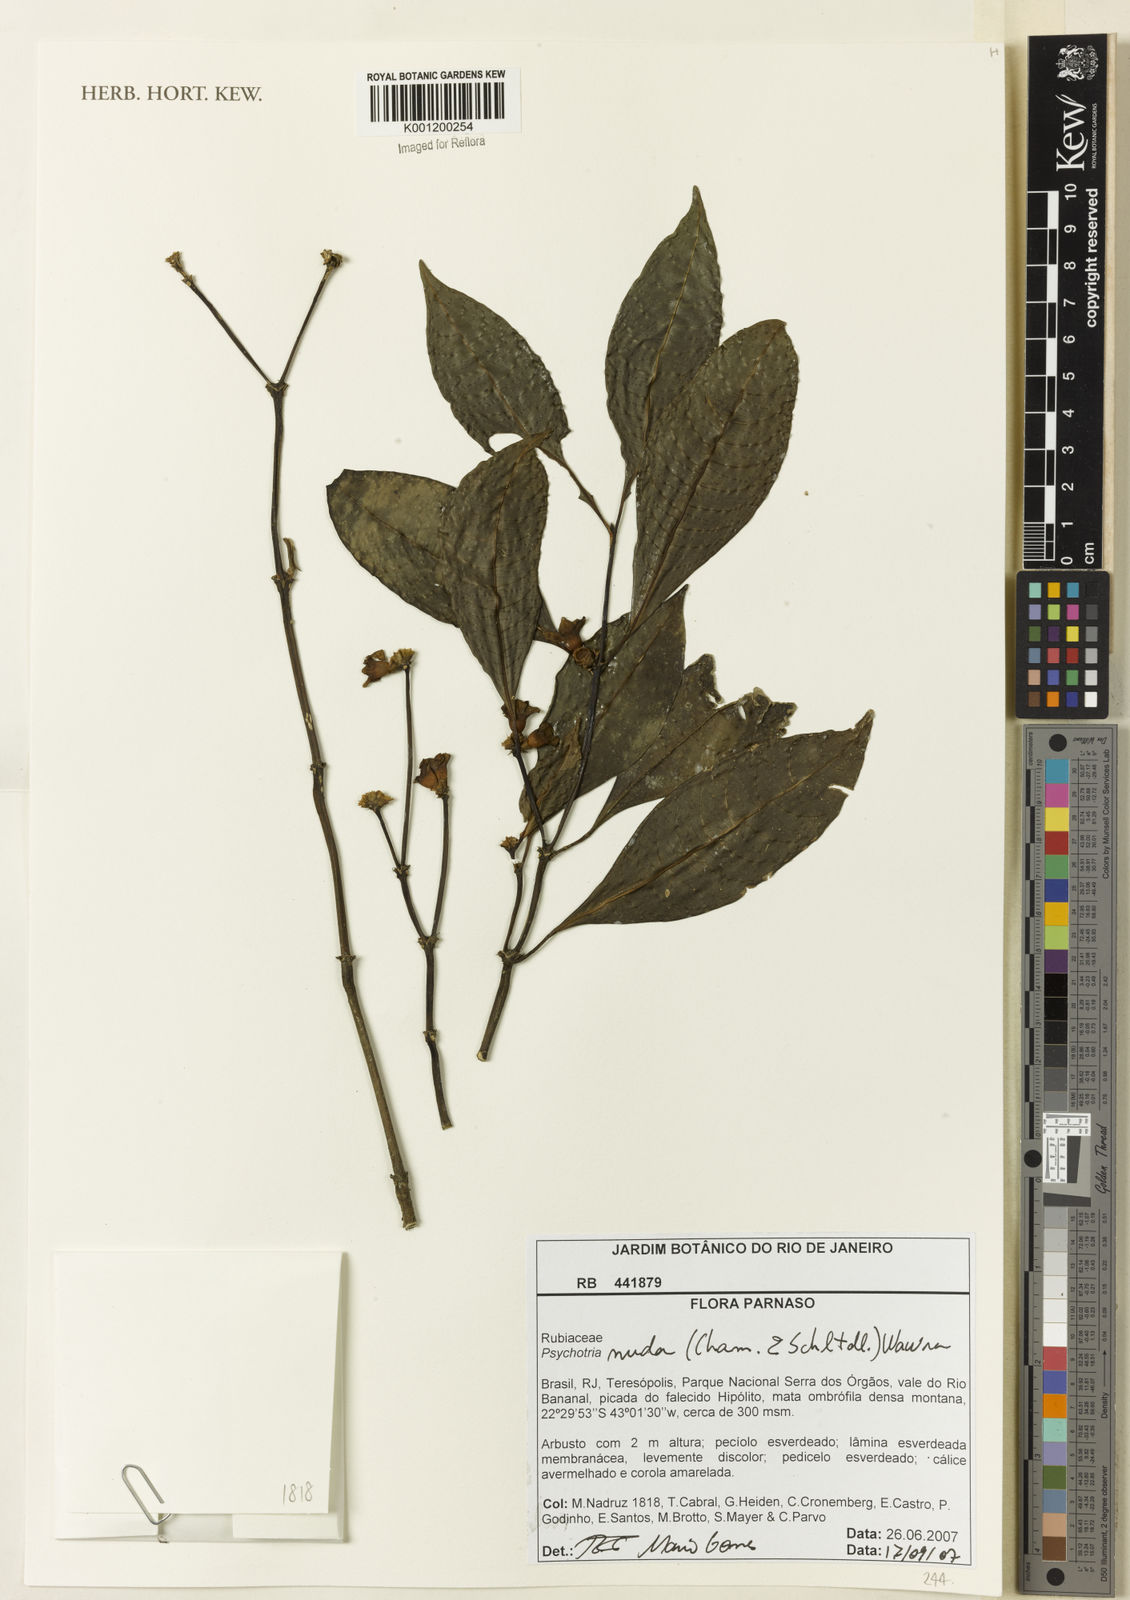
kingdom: Plantae
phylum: Tracheophyta
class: Magnoliopsida
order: Gentianales
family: Rubiaceae
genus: Psychotria
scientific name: Psychotria nuda
